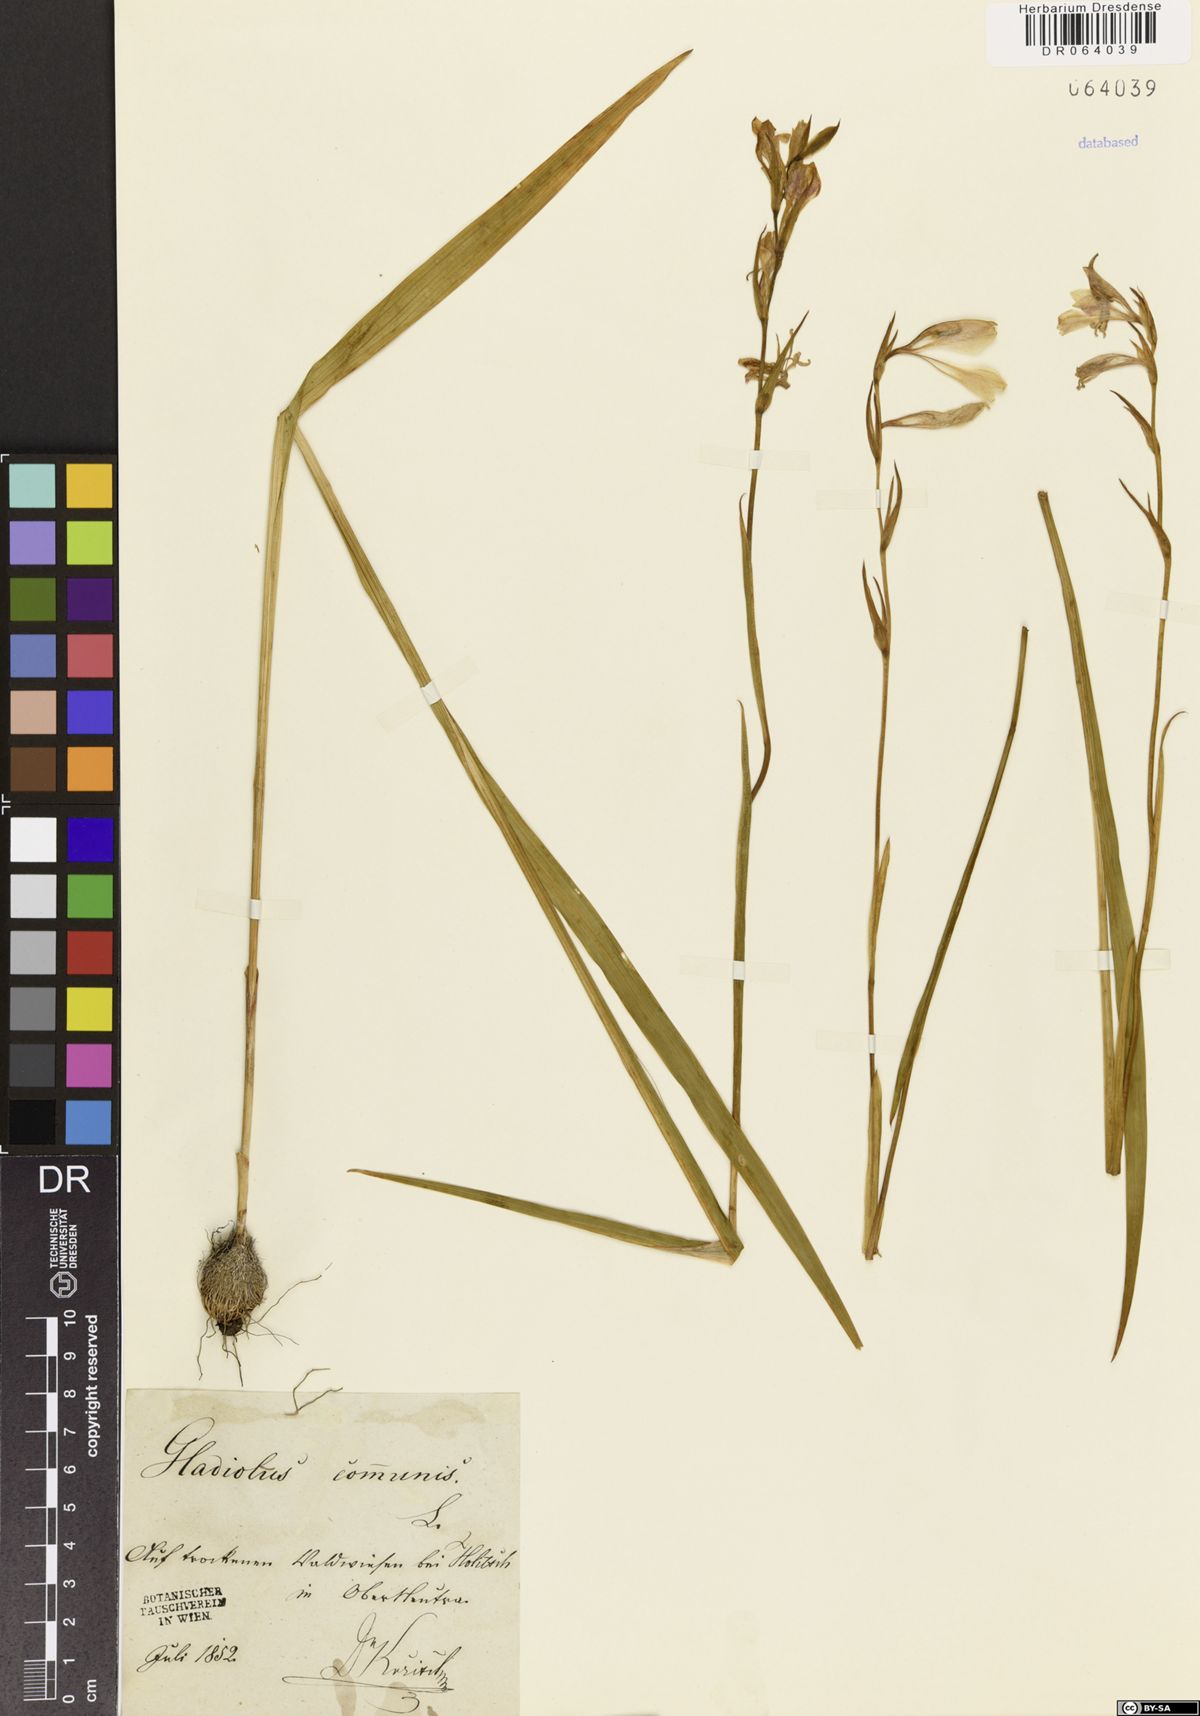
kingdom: Plantae
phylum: Tracheophyta
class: Liliopsida
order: Asparagales
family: Iridaceae
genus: Gladiolus
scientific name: Gladiolus communis
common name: Eastern gladiolus
